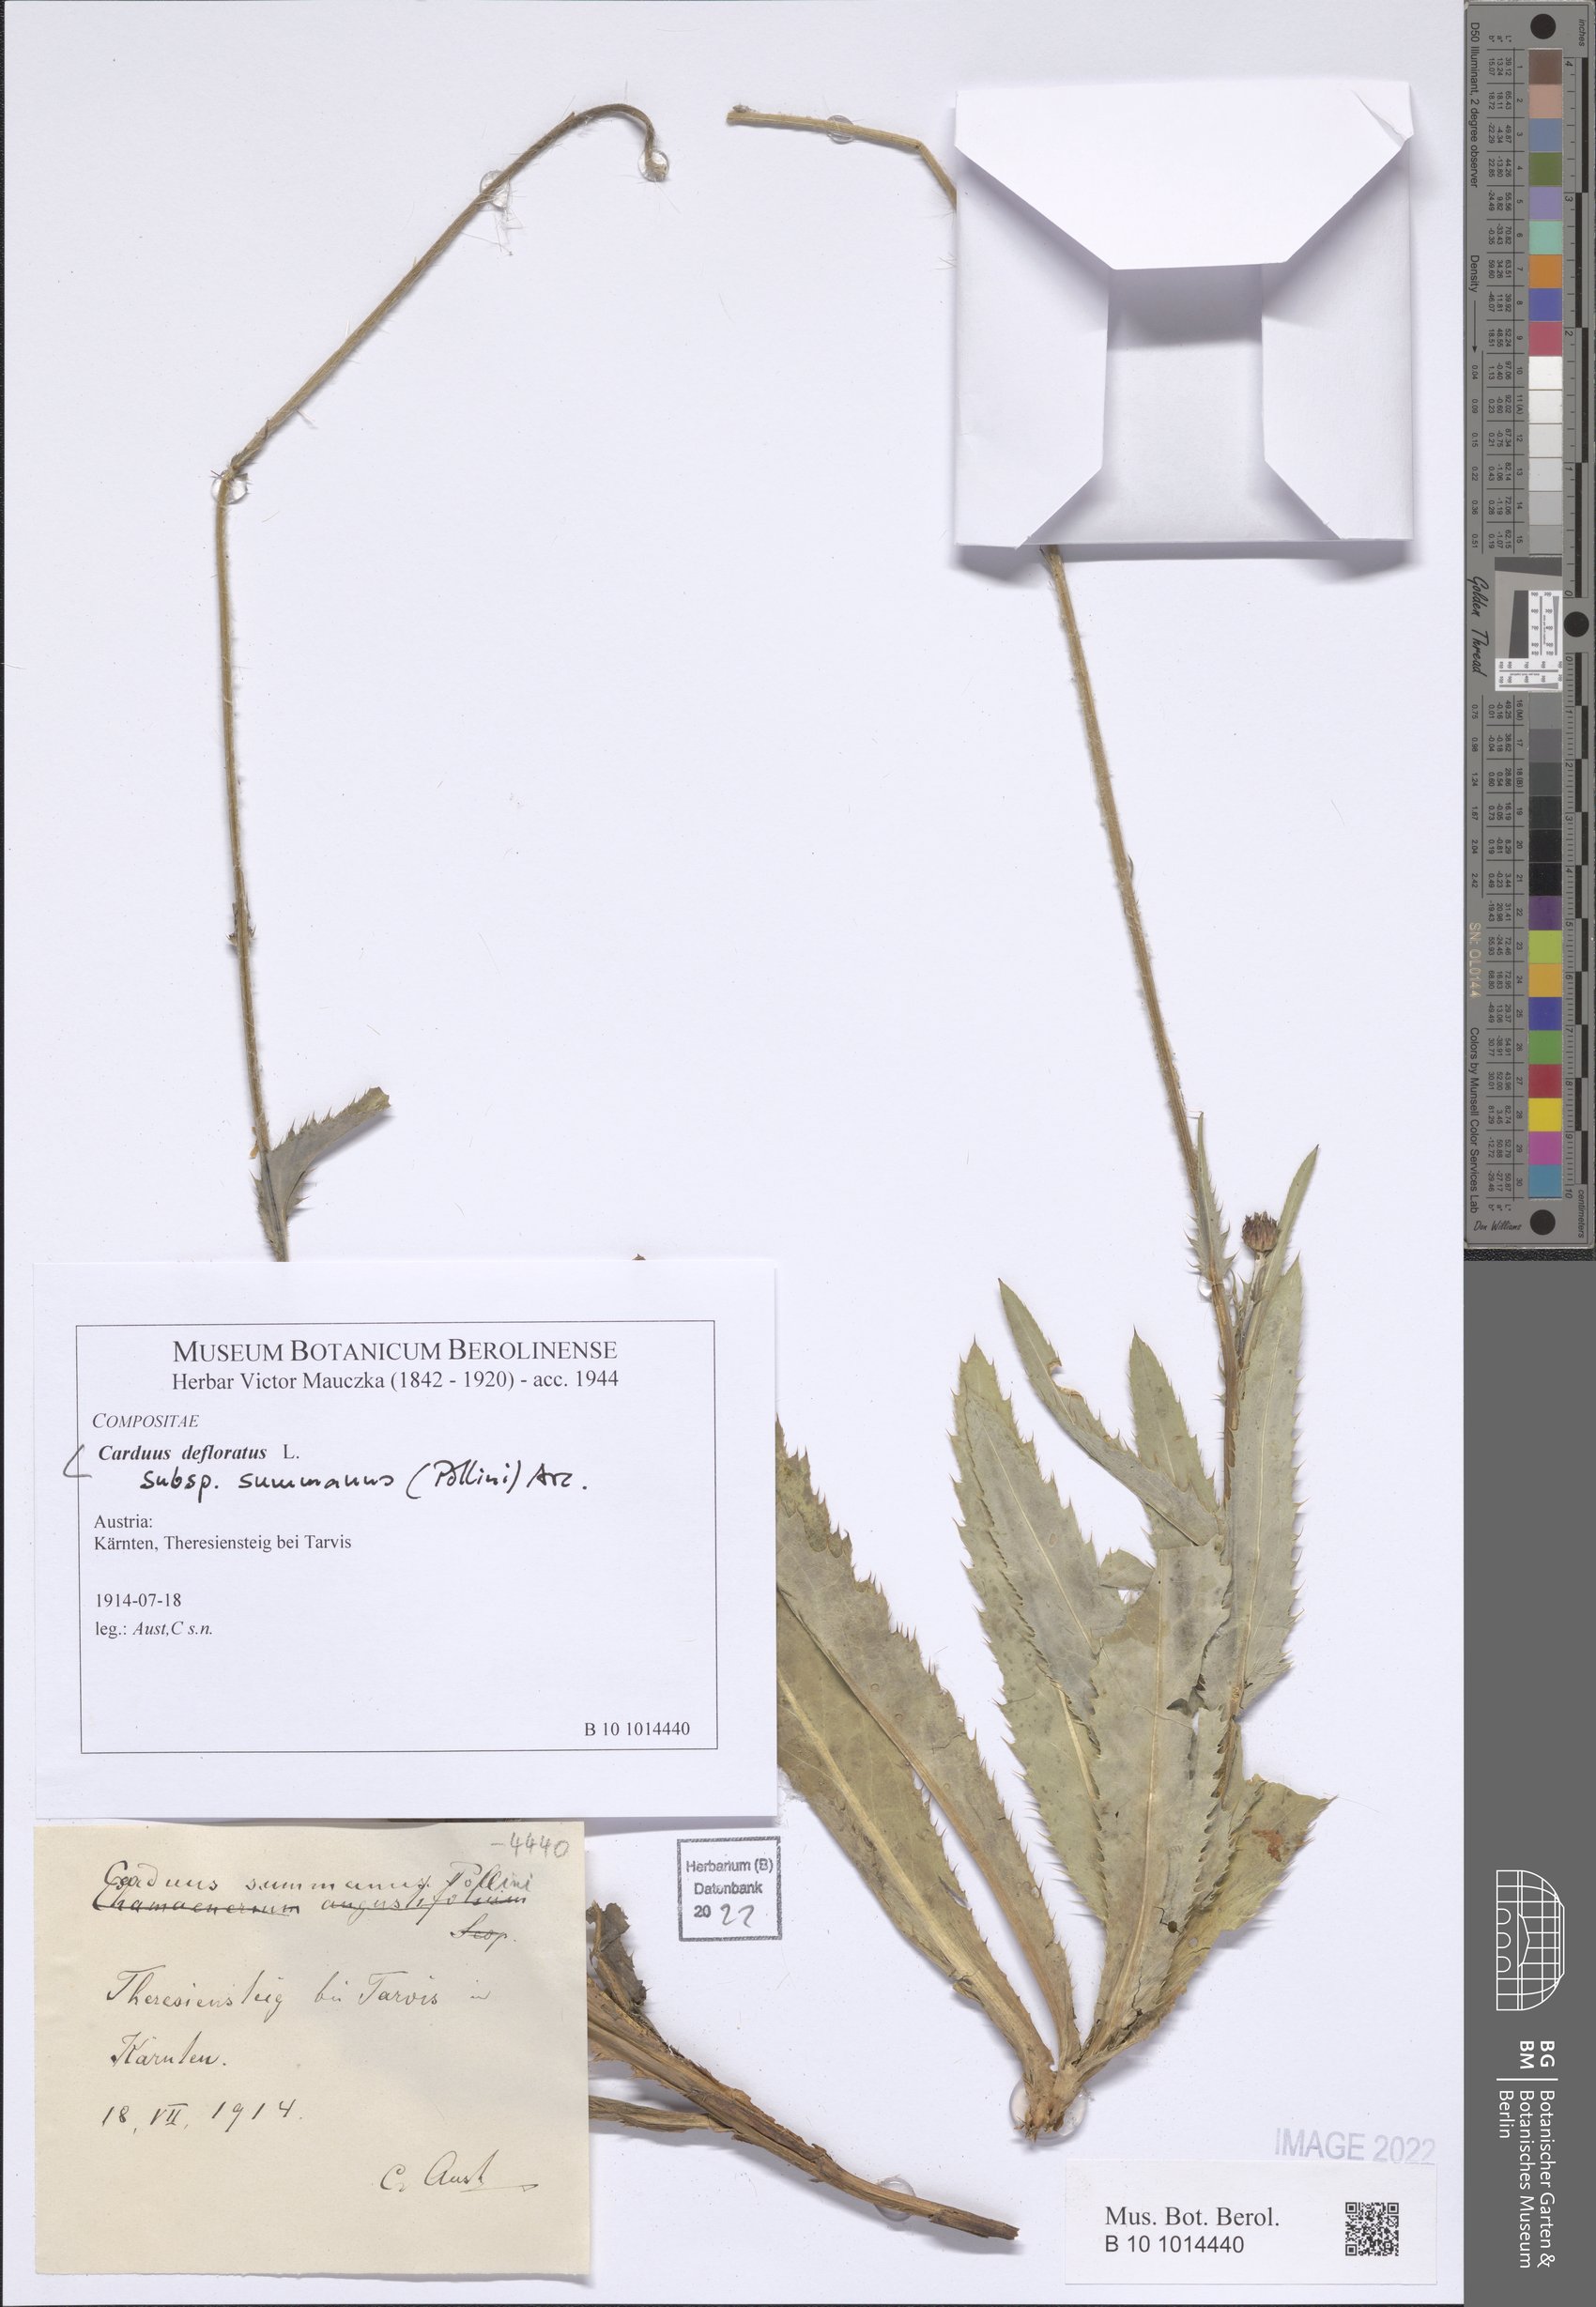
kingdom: Plantae
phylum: Tracheophyta
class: Magnoliopsida
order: Asterales
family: Asteraceae
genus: Carduus
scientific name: Carduus defloratus
